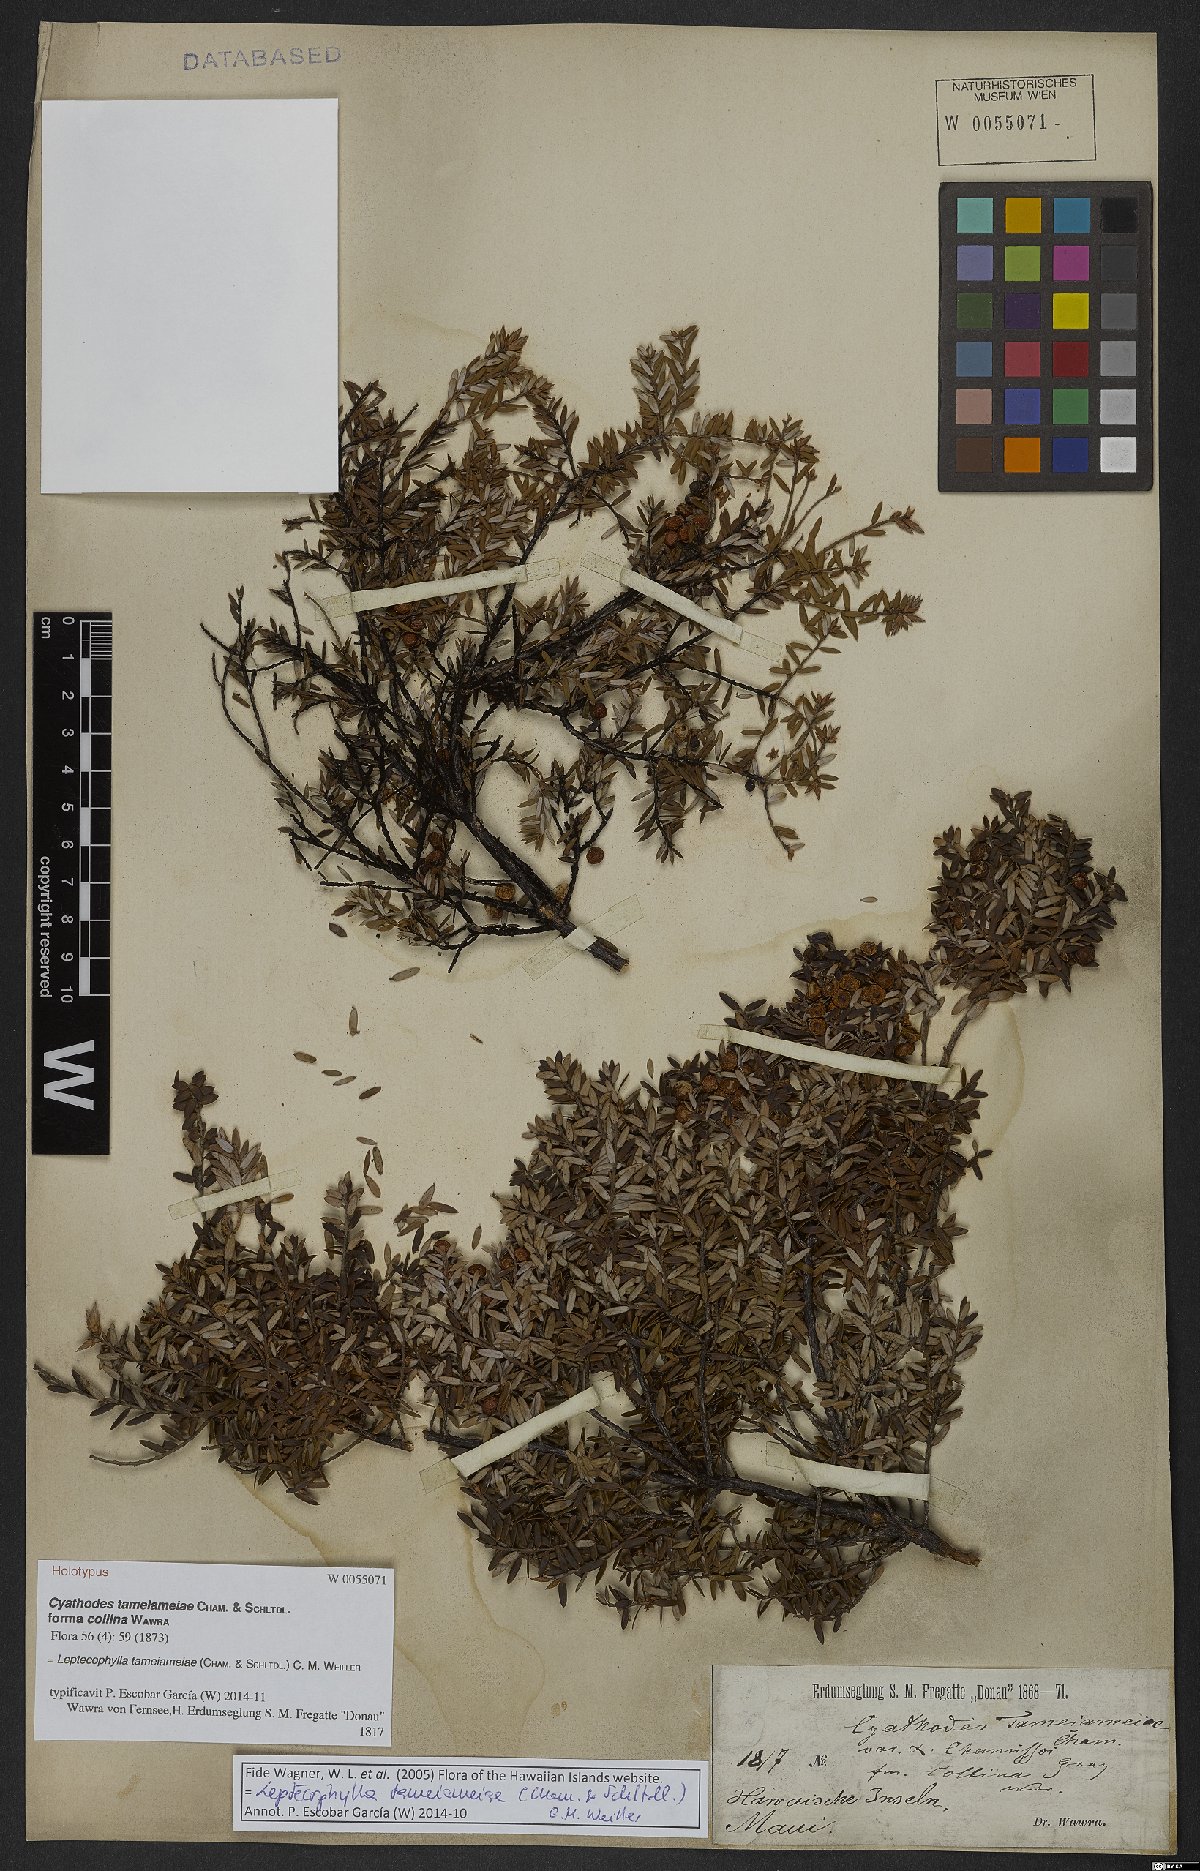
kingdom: Plantae
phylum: Tracheophyta
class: Magnoliopsida
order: Ericales
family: Ericaceae
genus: Leptecophylla
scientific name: Leptecophylla tameiameiae
